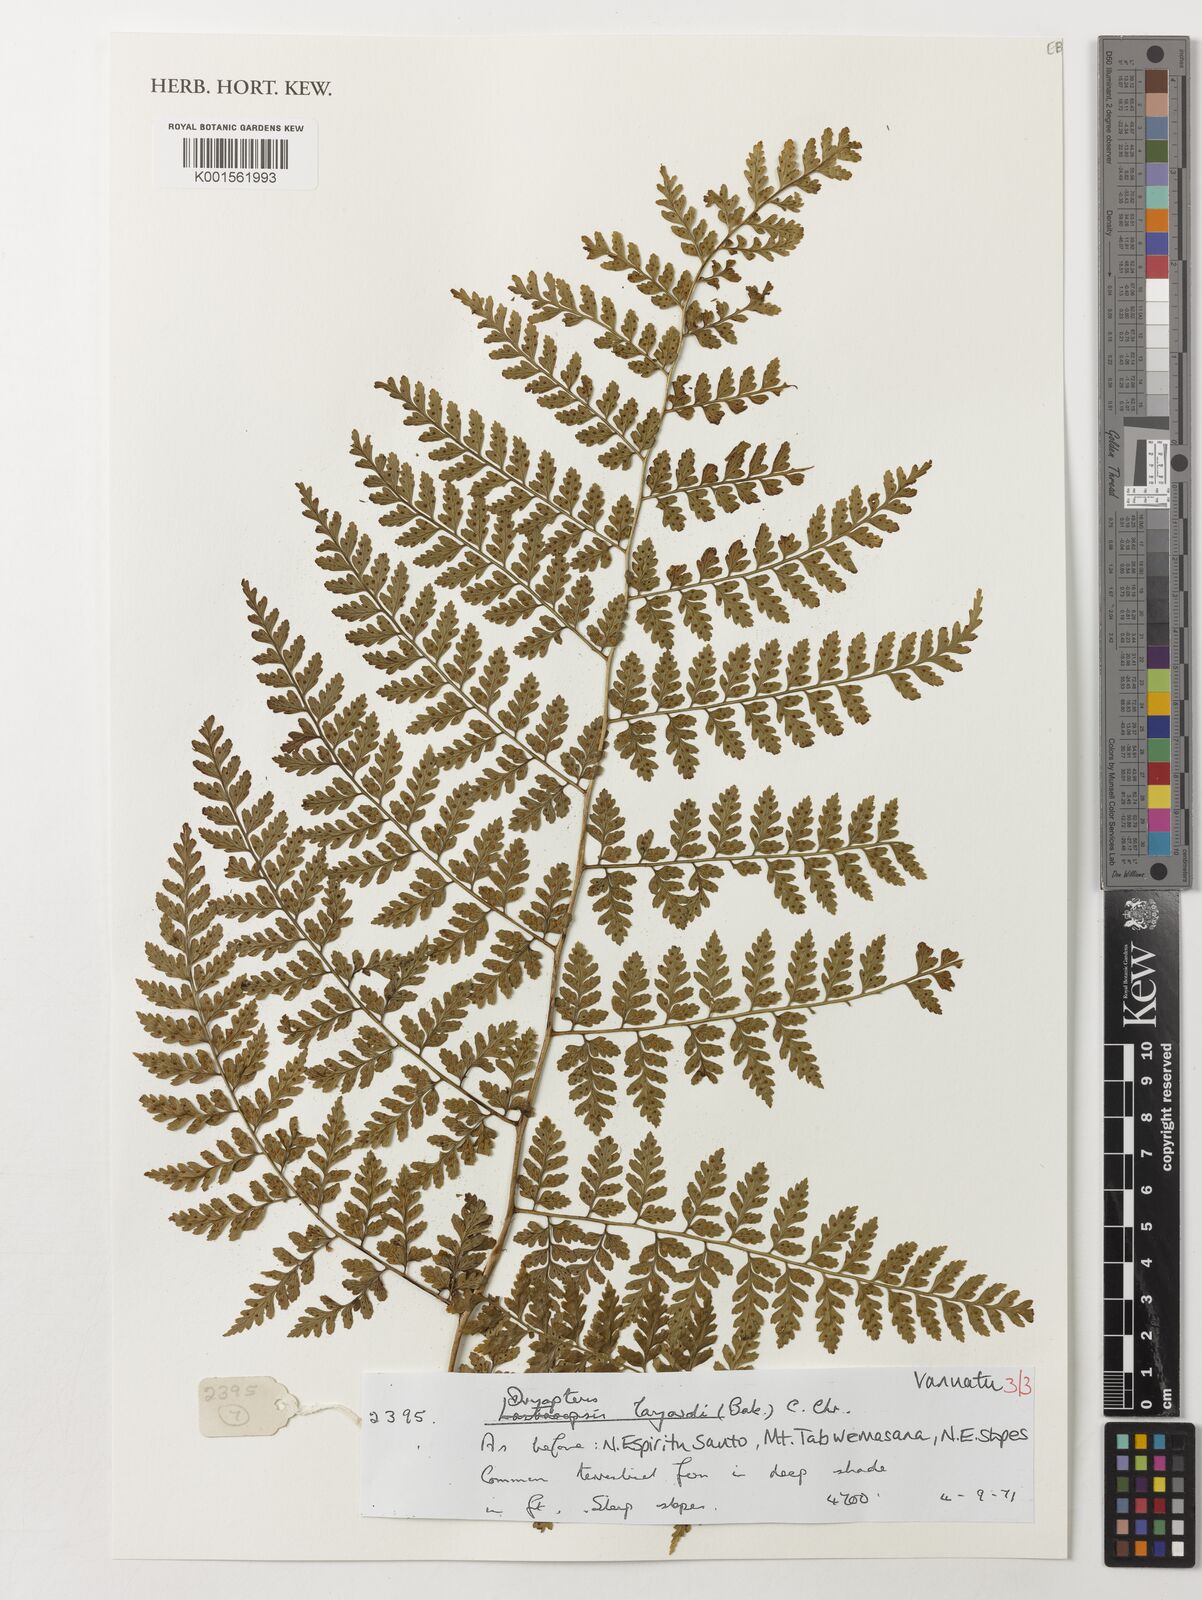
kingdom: Plantae
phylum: Tracheophyta
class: Polypodiopsida
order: Polypodiales
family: Dryopteridaceae
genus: Dryopteris
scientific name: Dryopteris aneitensis
